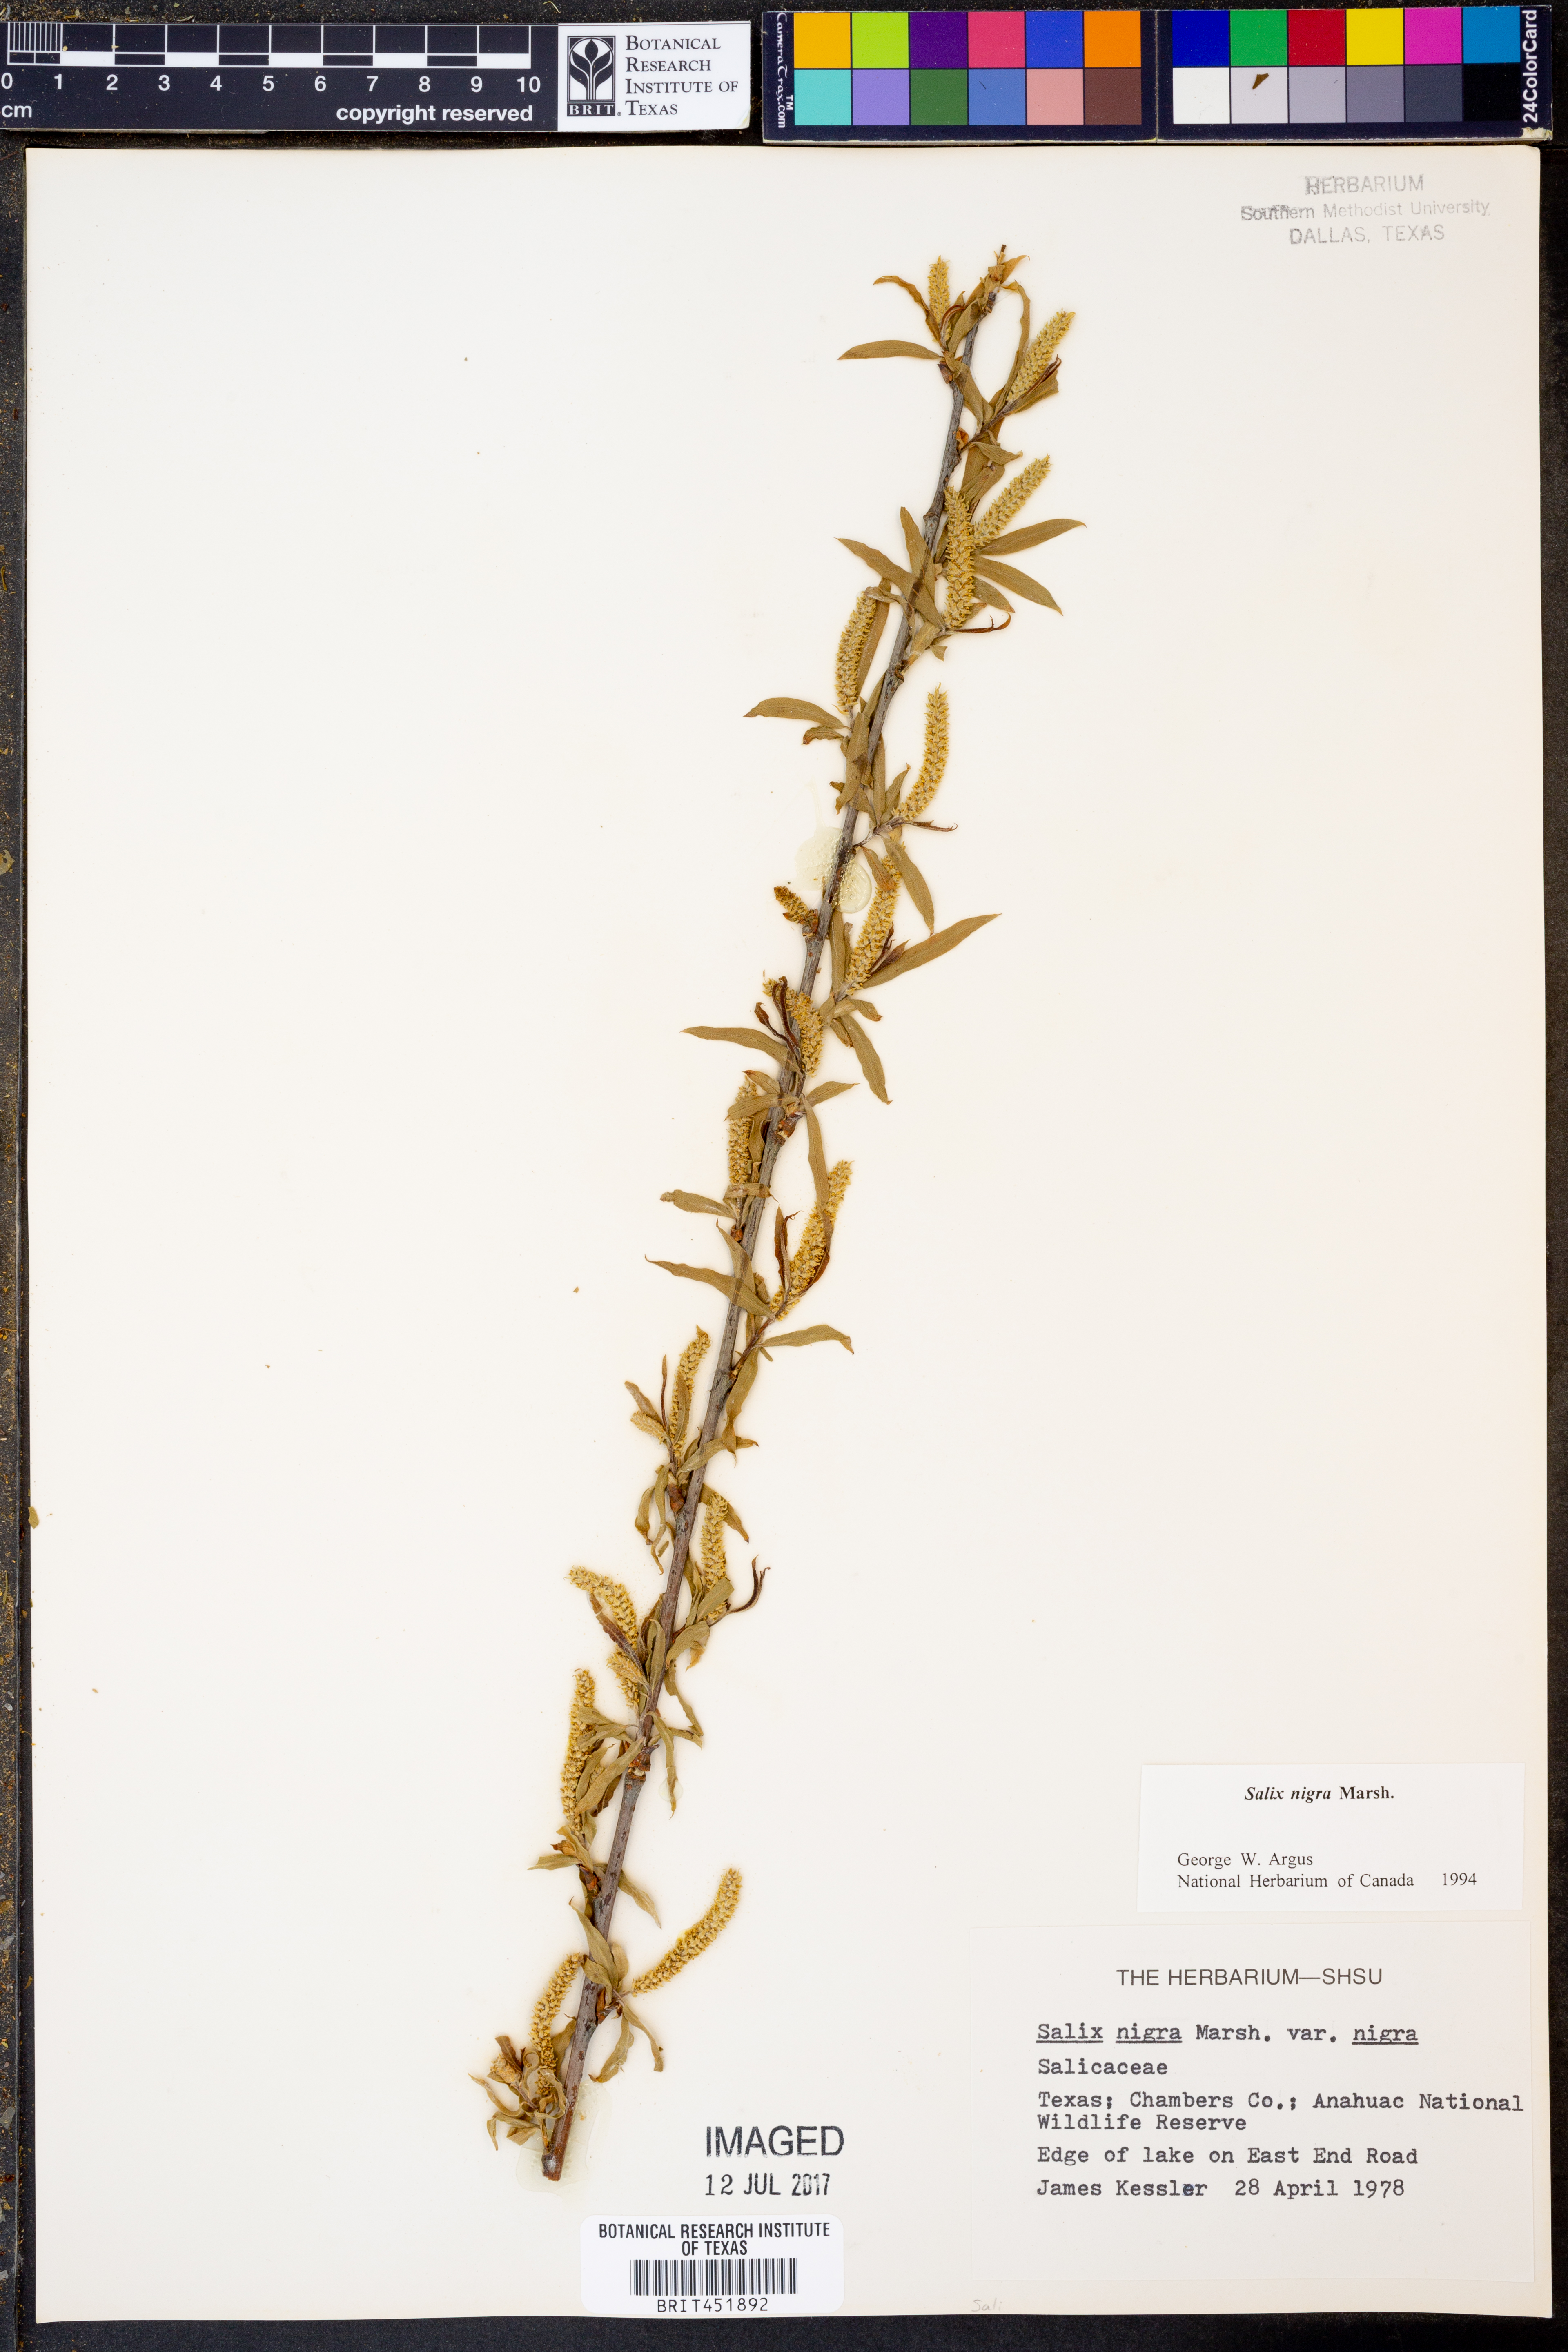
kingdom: Plantae
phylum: Tracheophyta
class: Magnoliopsida
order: Malpighiales
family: Salicaceae
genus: Salix
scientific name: Salix nigra
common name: Black willow
